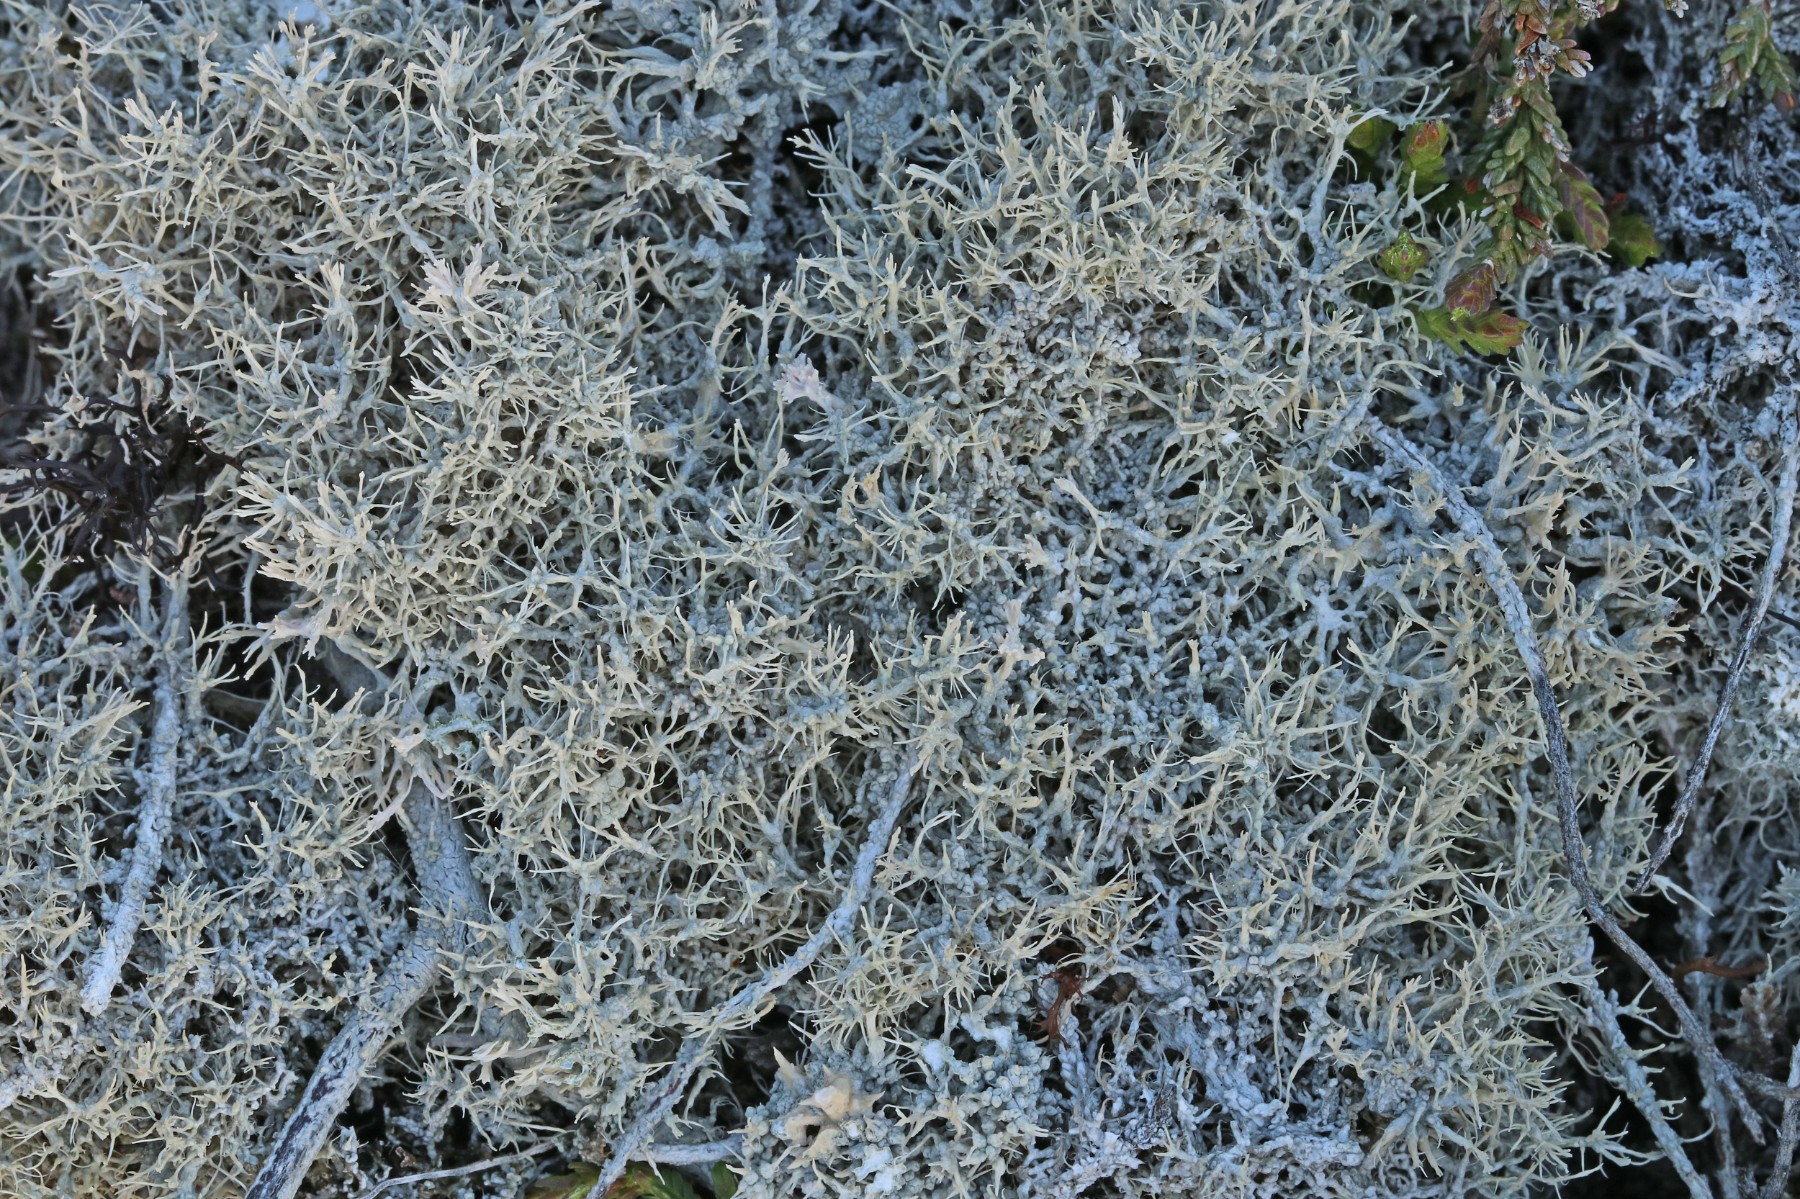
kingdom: Fungi
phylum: Ascomycota
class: Lecanoromycetes
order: Pertusariales
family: Ochrolechiaceae
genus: Ochrolechia
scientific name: Ochrolechia frigida
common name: fjeld-blegskivelav
